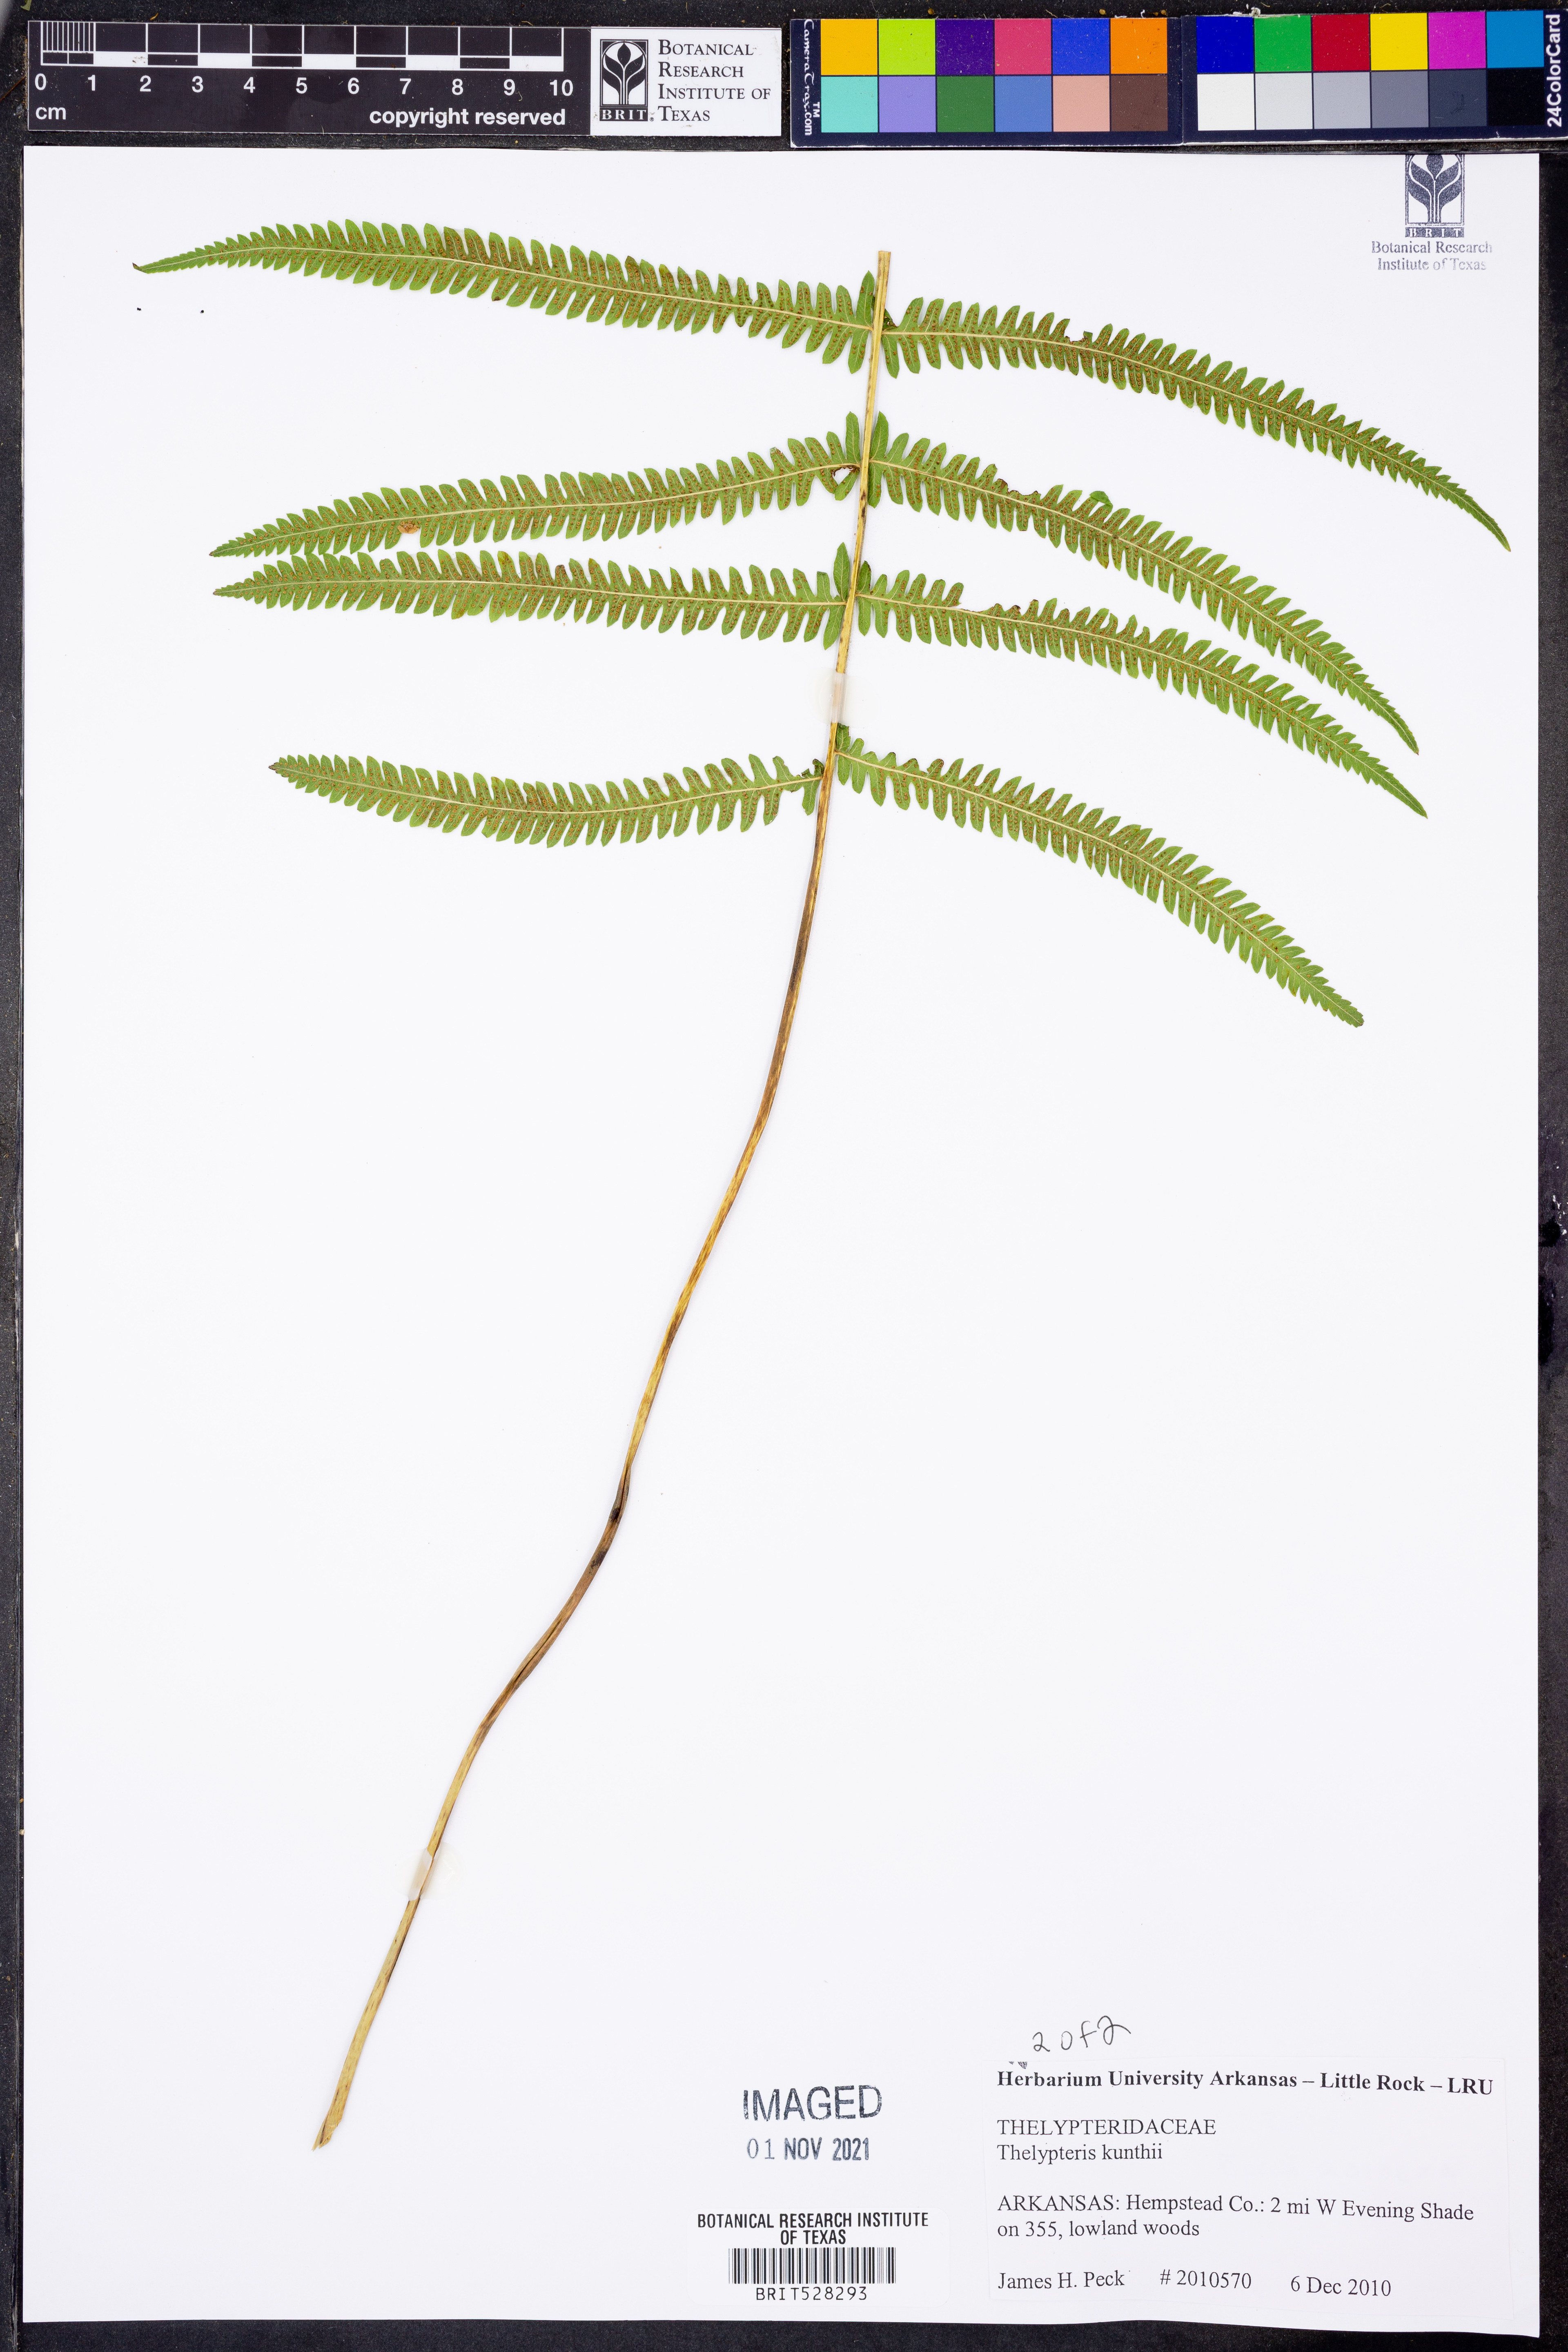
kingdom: Plantae
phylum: Tracheophyta
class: Polypodiopsida
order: Polypodiales
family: Thelypteridaceae
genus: Pelazoneuron
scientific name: Pelazoneuron kunthii
